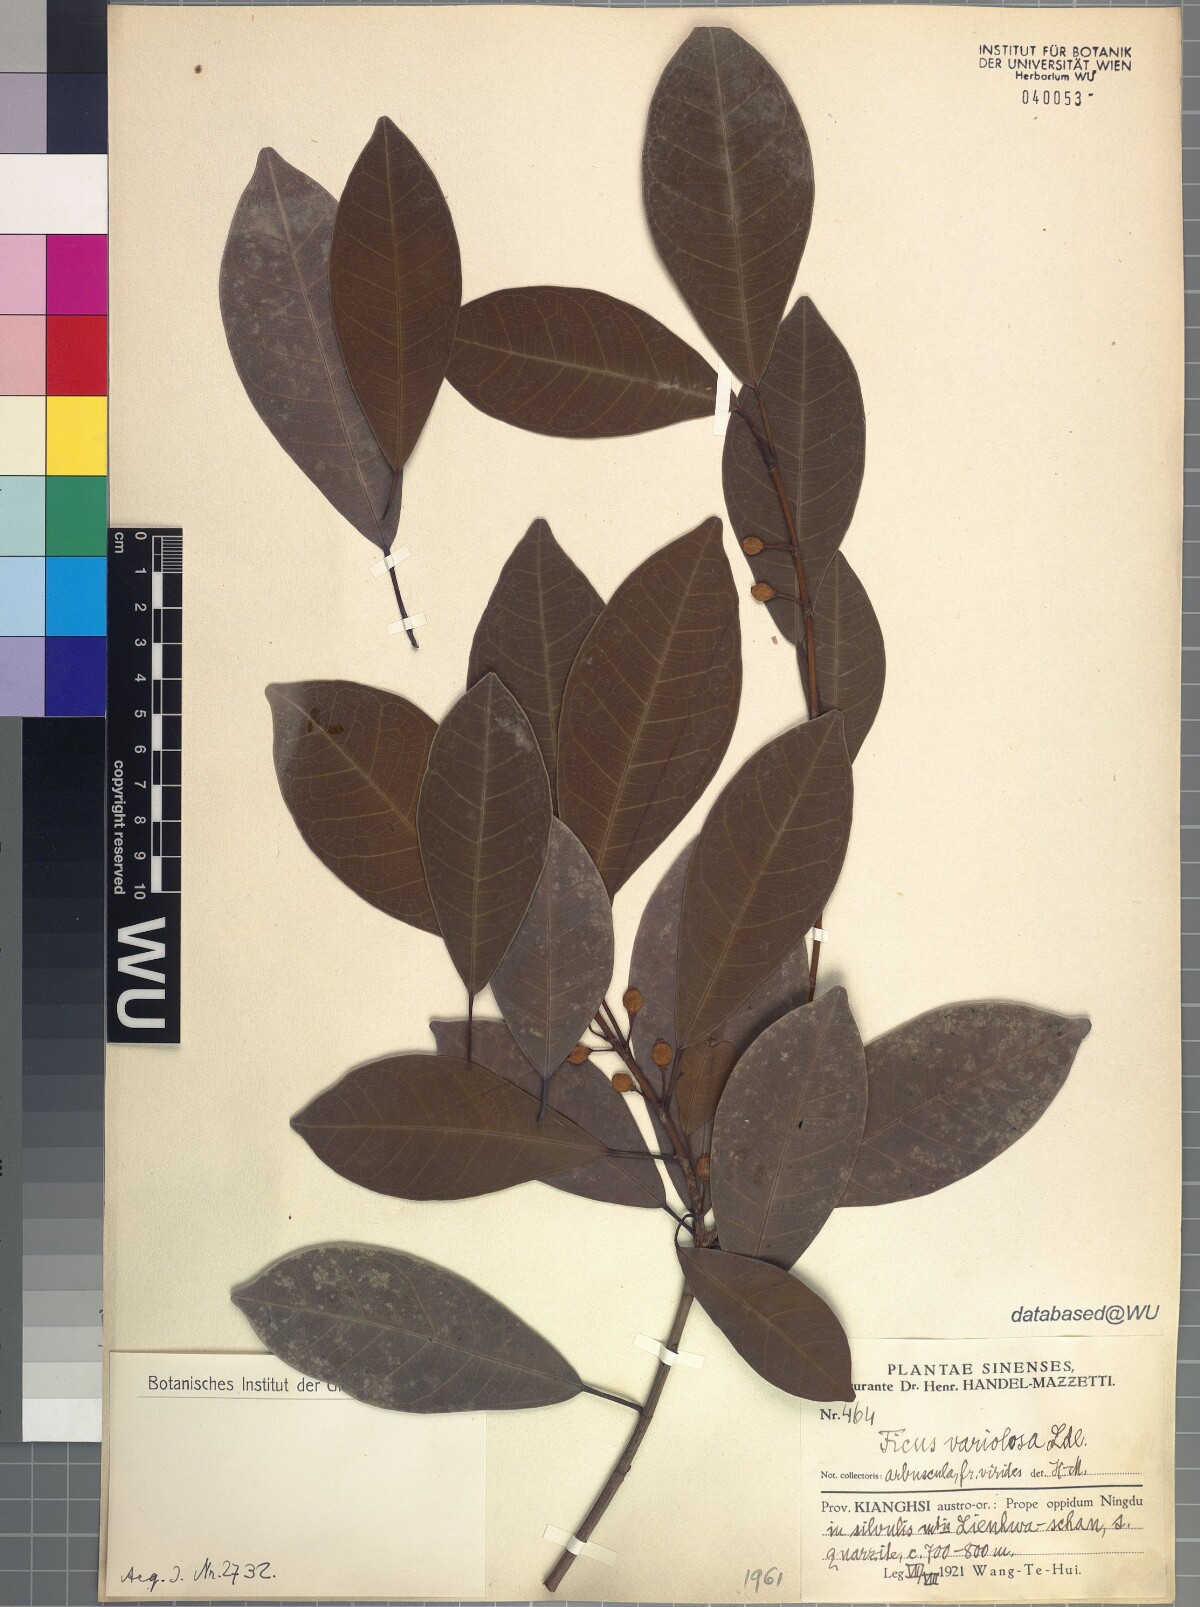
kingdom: Plantae
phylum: Tracheophyta
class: Magnoliopsida
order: Rosales
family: Moraceae
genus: Ficus
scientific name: Ficus variolosa
